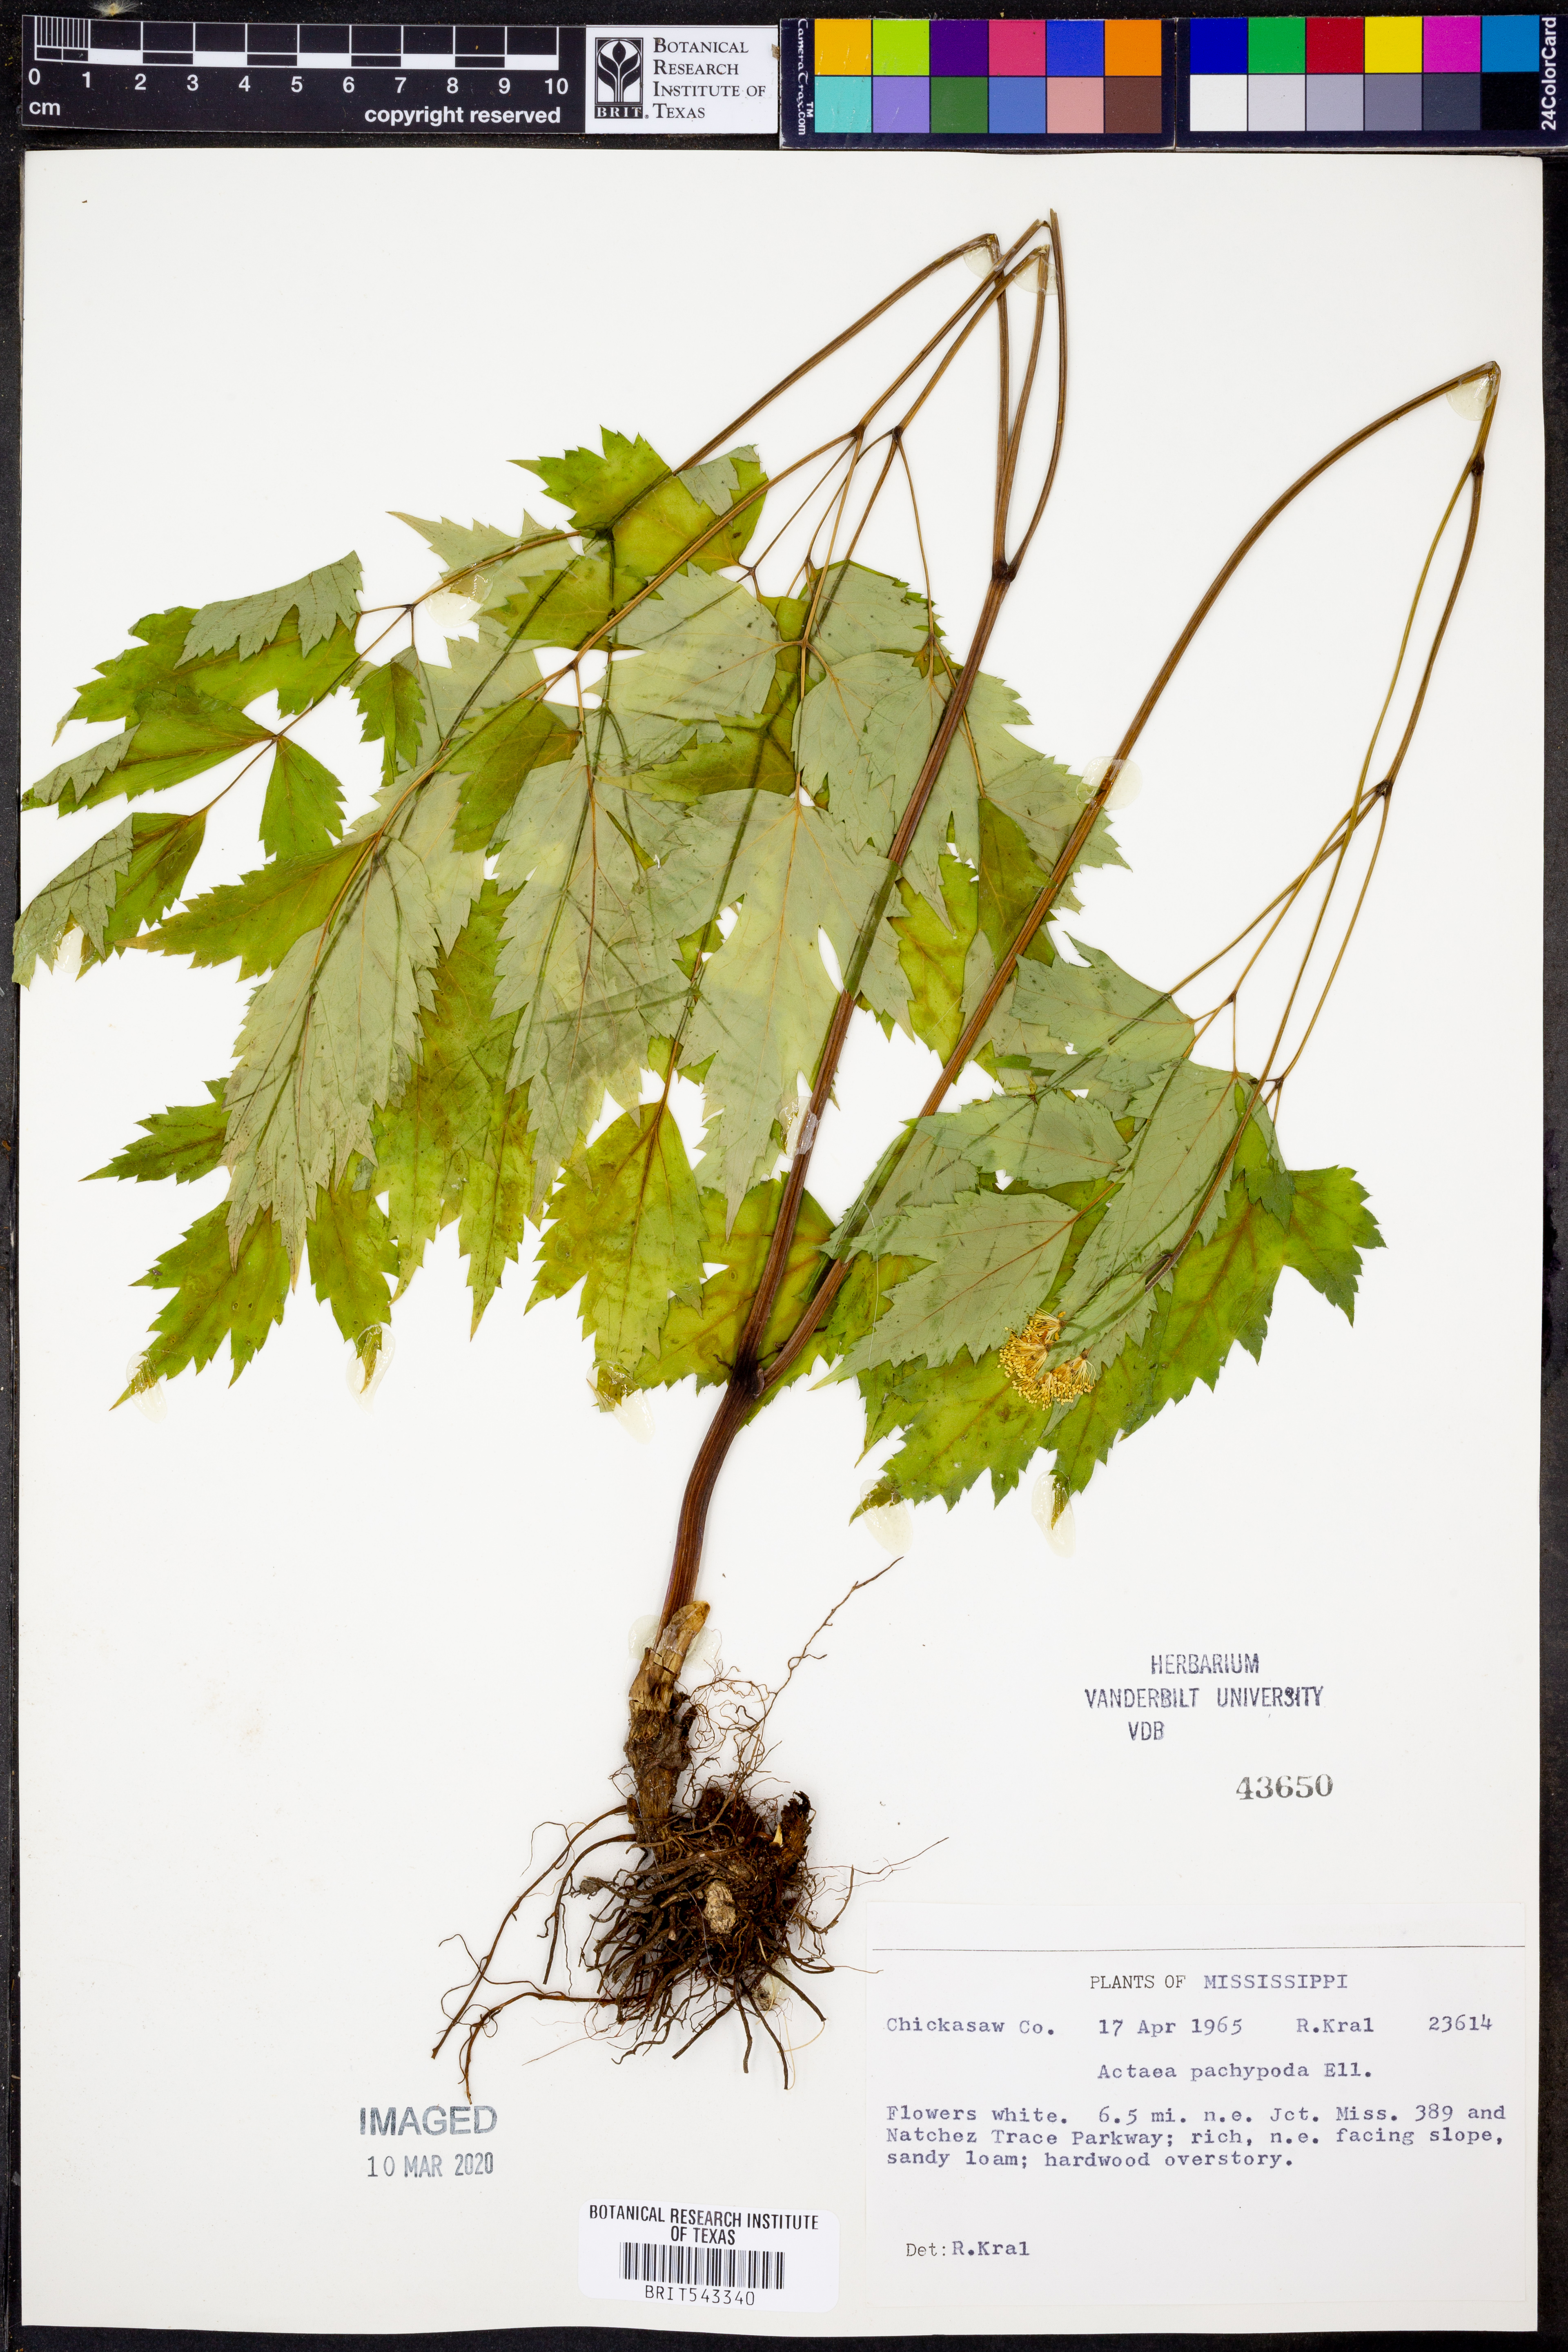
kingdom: Plantae
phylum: Tracheophyta
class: Magnoliopsida
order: Ranunculales
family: Ranunculaceae
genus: Actaea
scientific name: Actaea pachypoda
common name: Doll's-eyes
